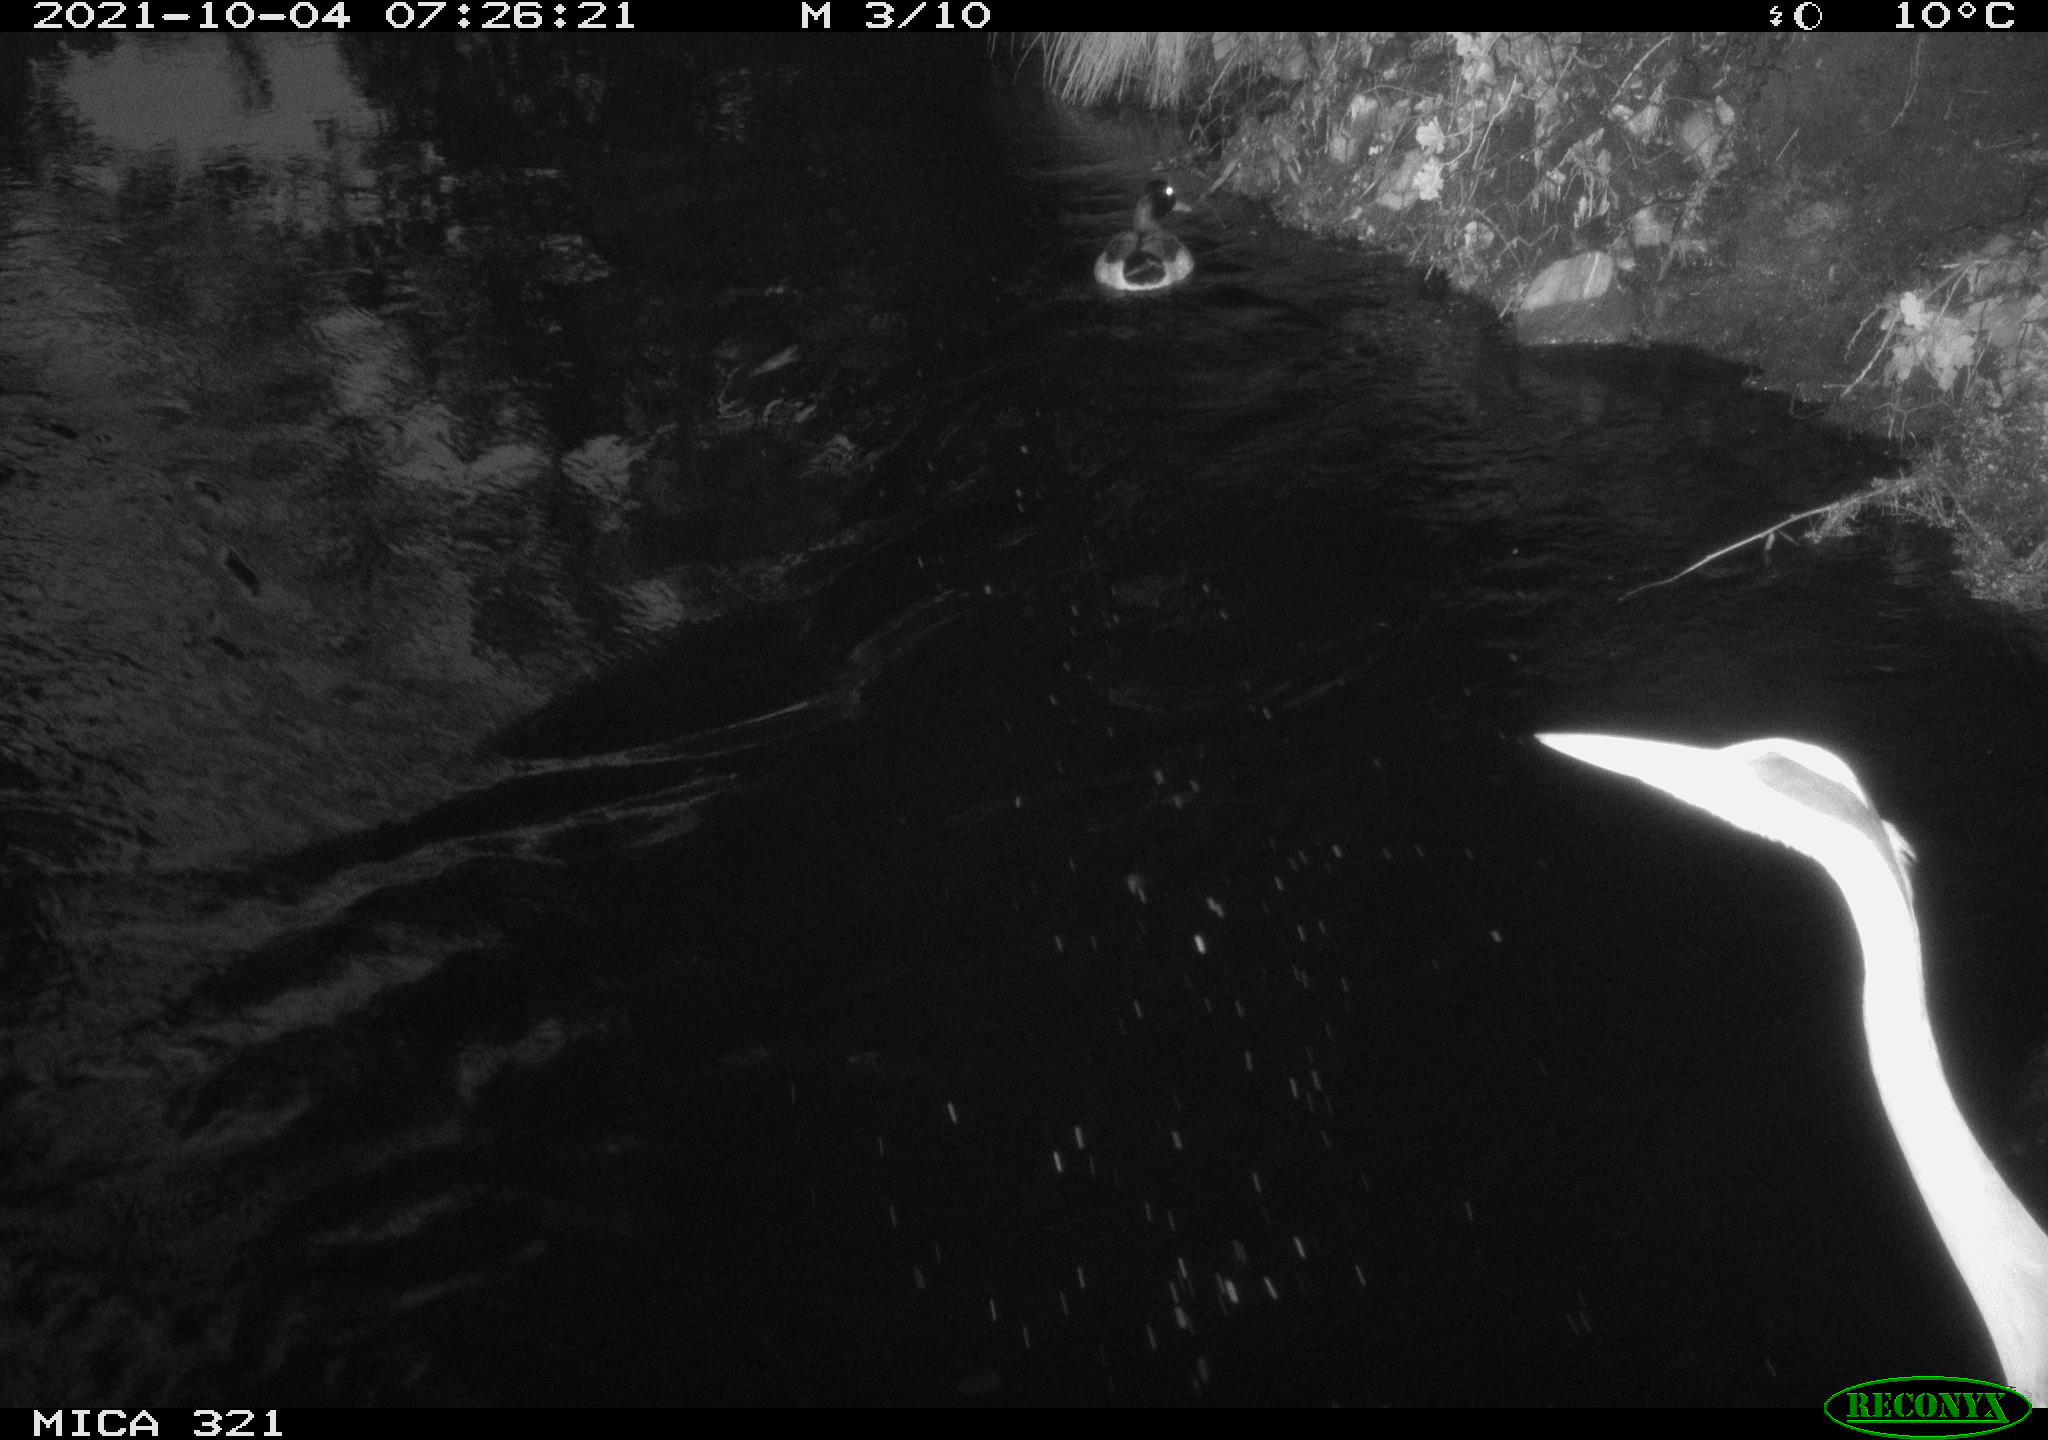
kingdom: Animalia
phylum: Chordata
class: Aves
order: Anseriformes
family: Anatidae
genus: Anas
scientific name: Anas platyrhynchos
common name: Mallard
